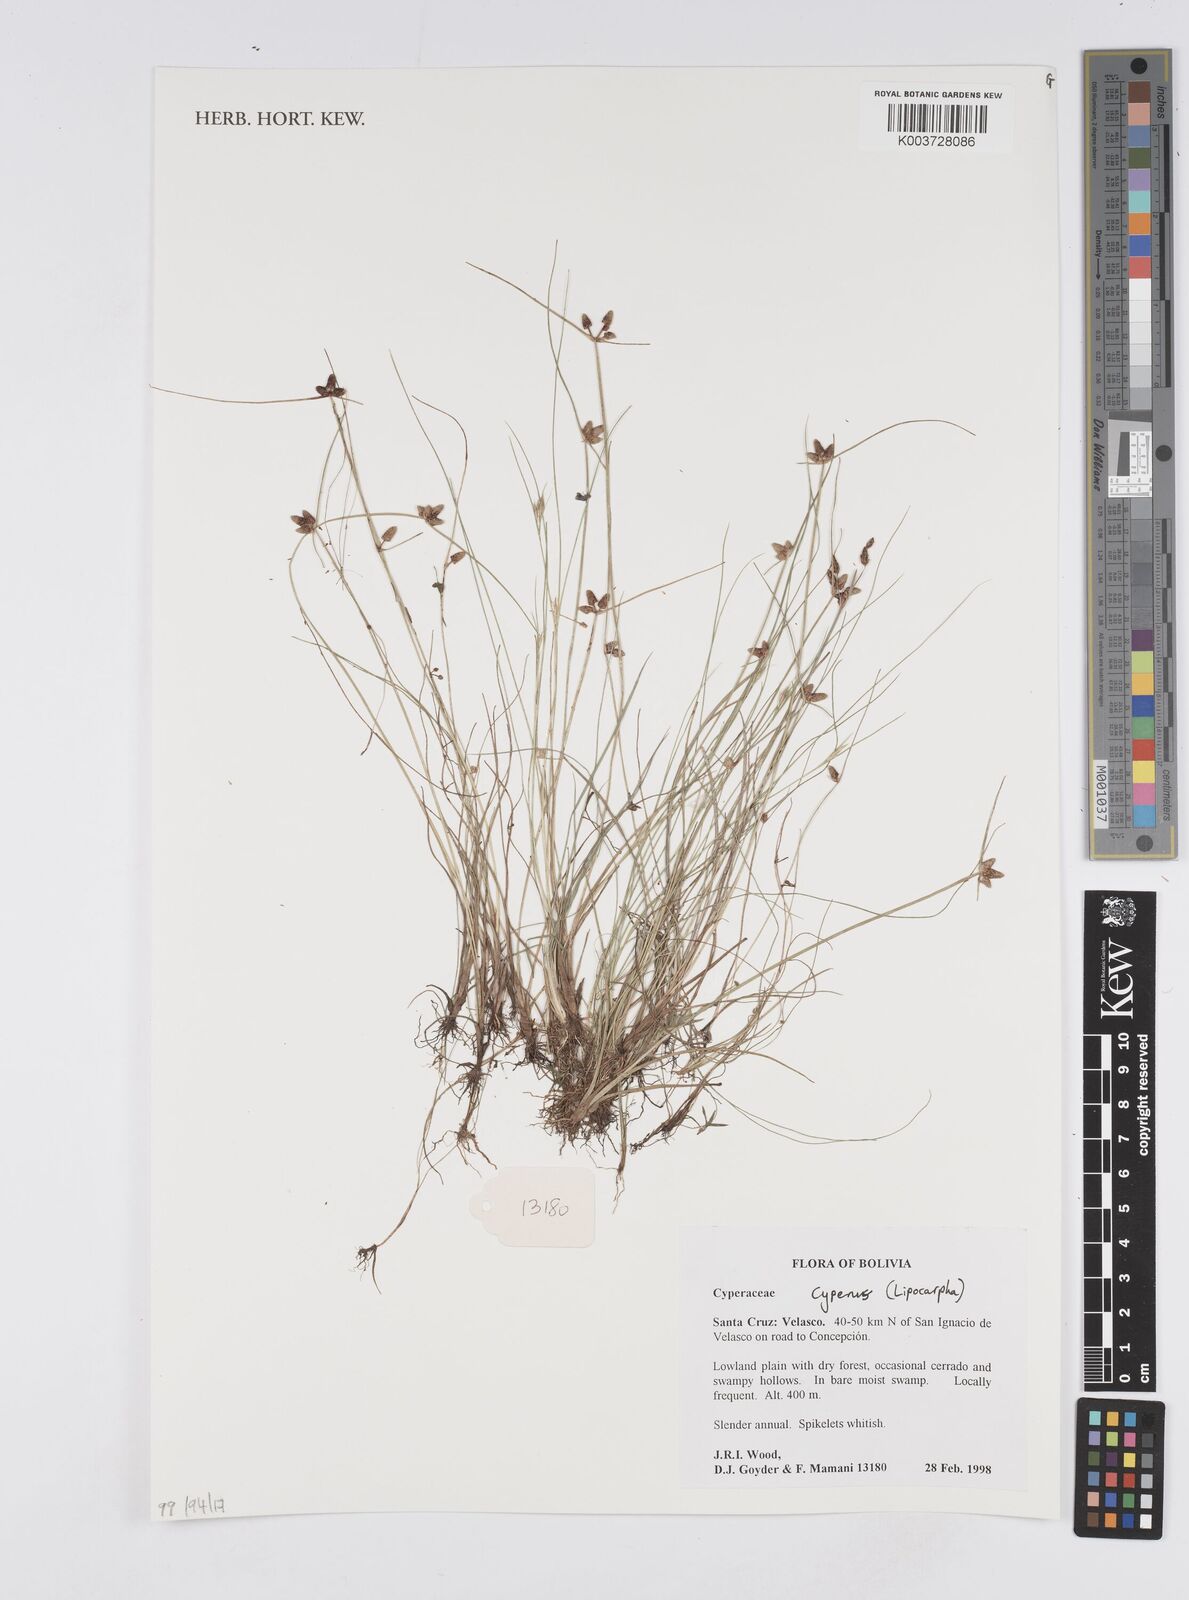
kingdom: Plantae
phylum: Tracheophyta
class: Liliopsida
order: Poales
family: Cyperaceae
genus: Cyperus
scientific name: Cyperus
